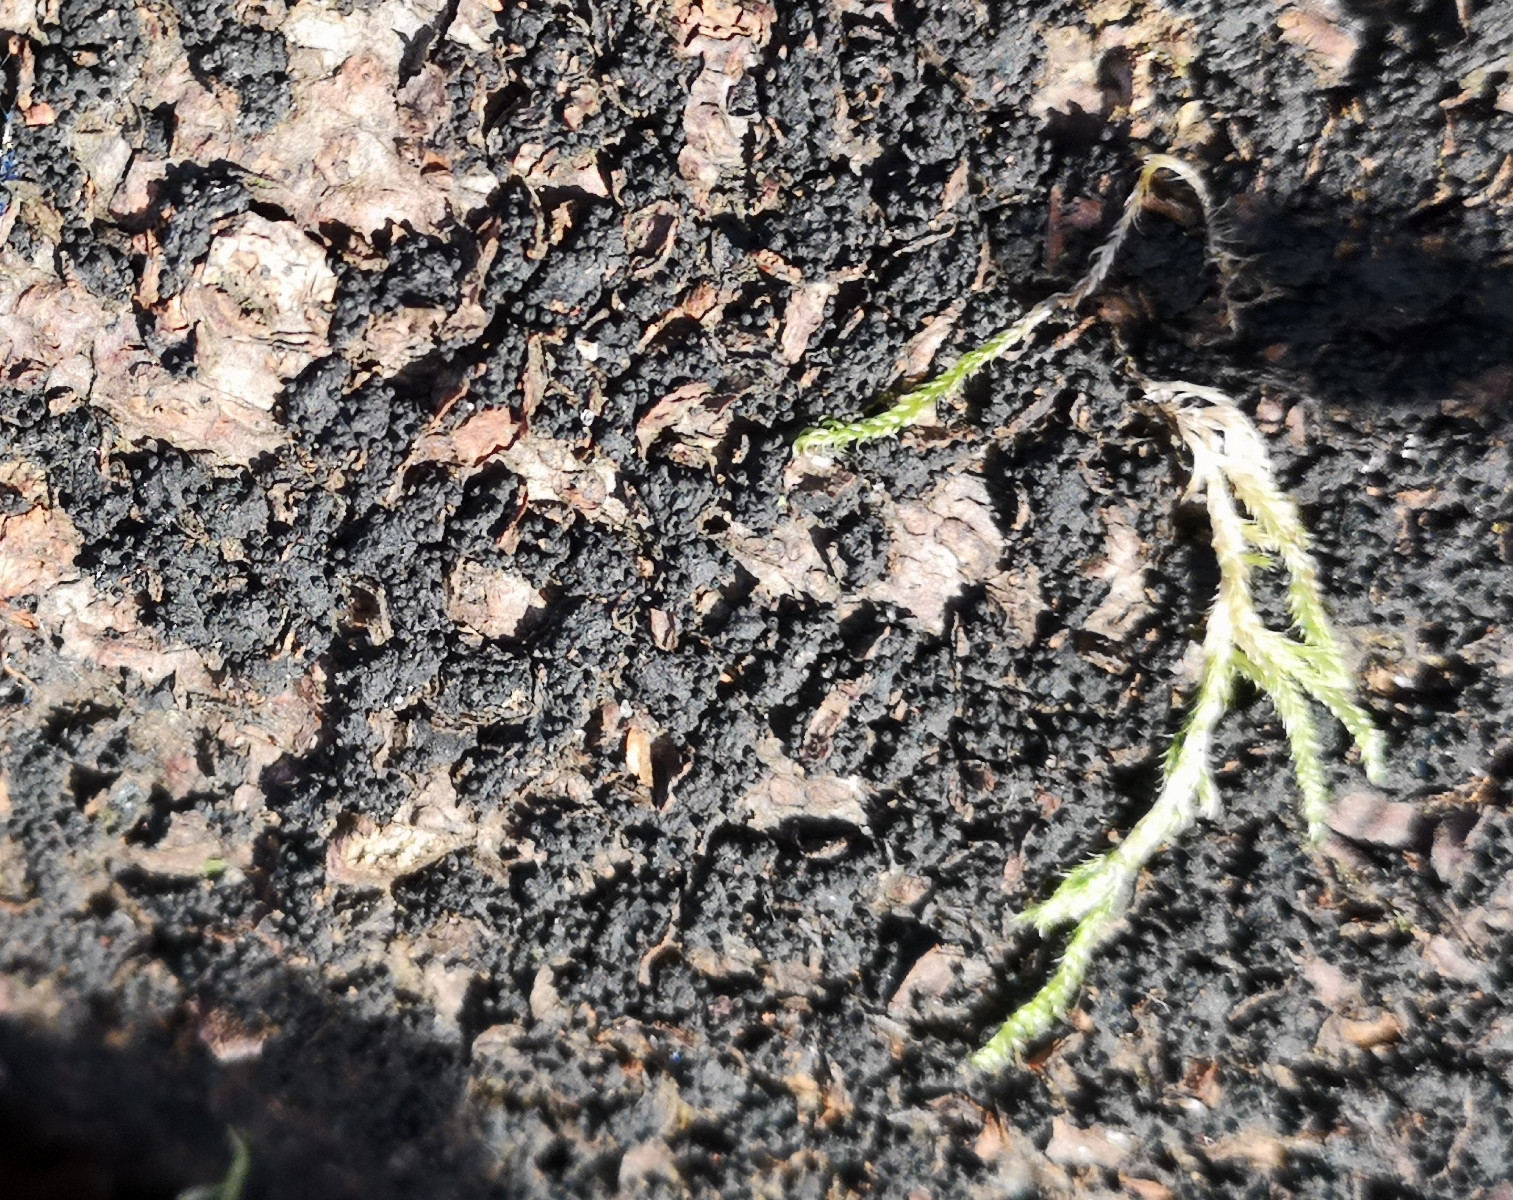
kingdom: Fungi
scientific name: Fungi
